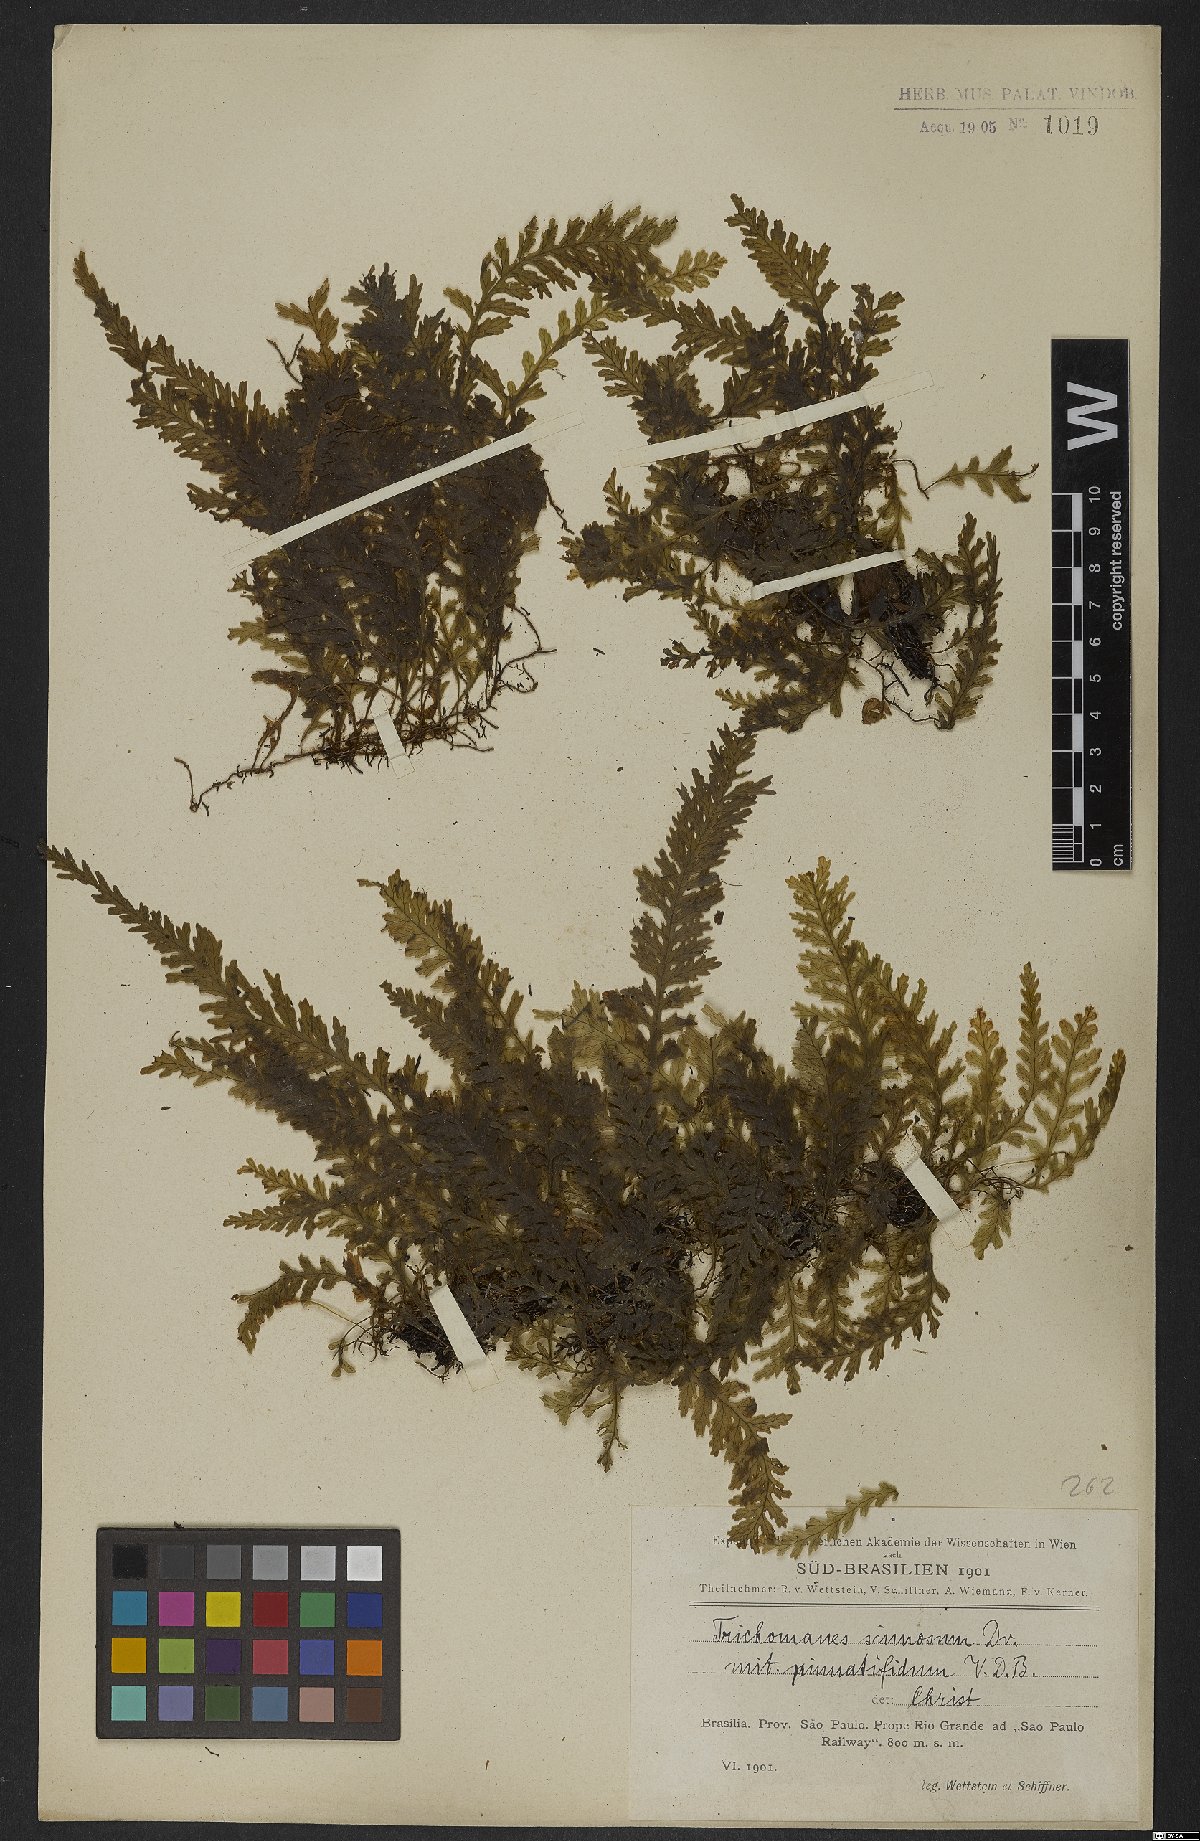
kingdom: Plantae
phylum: Tracheophyta
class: Polypodiopsida
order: Hymenophyllales
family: Hymenophyllaceae
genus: Trichomanes
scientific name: Trichomanes pinnatifidum
